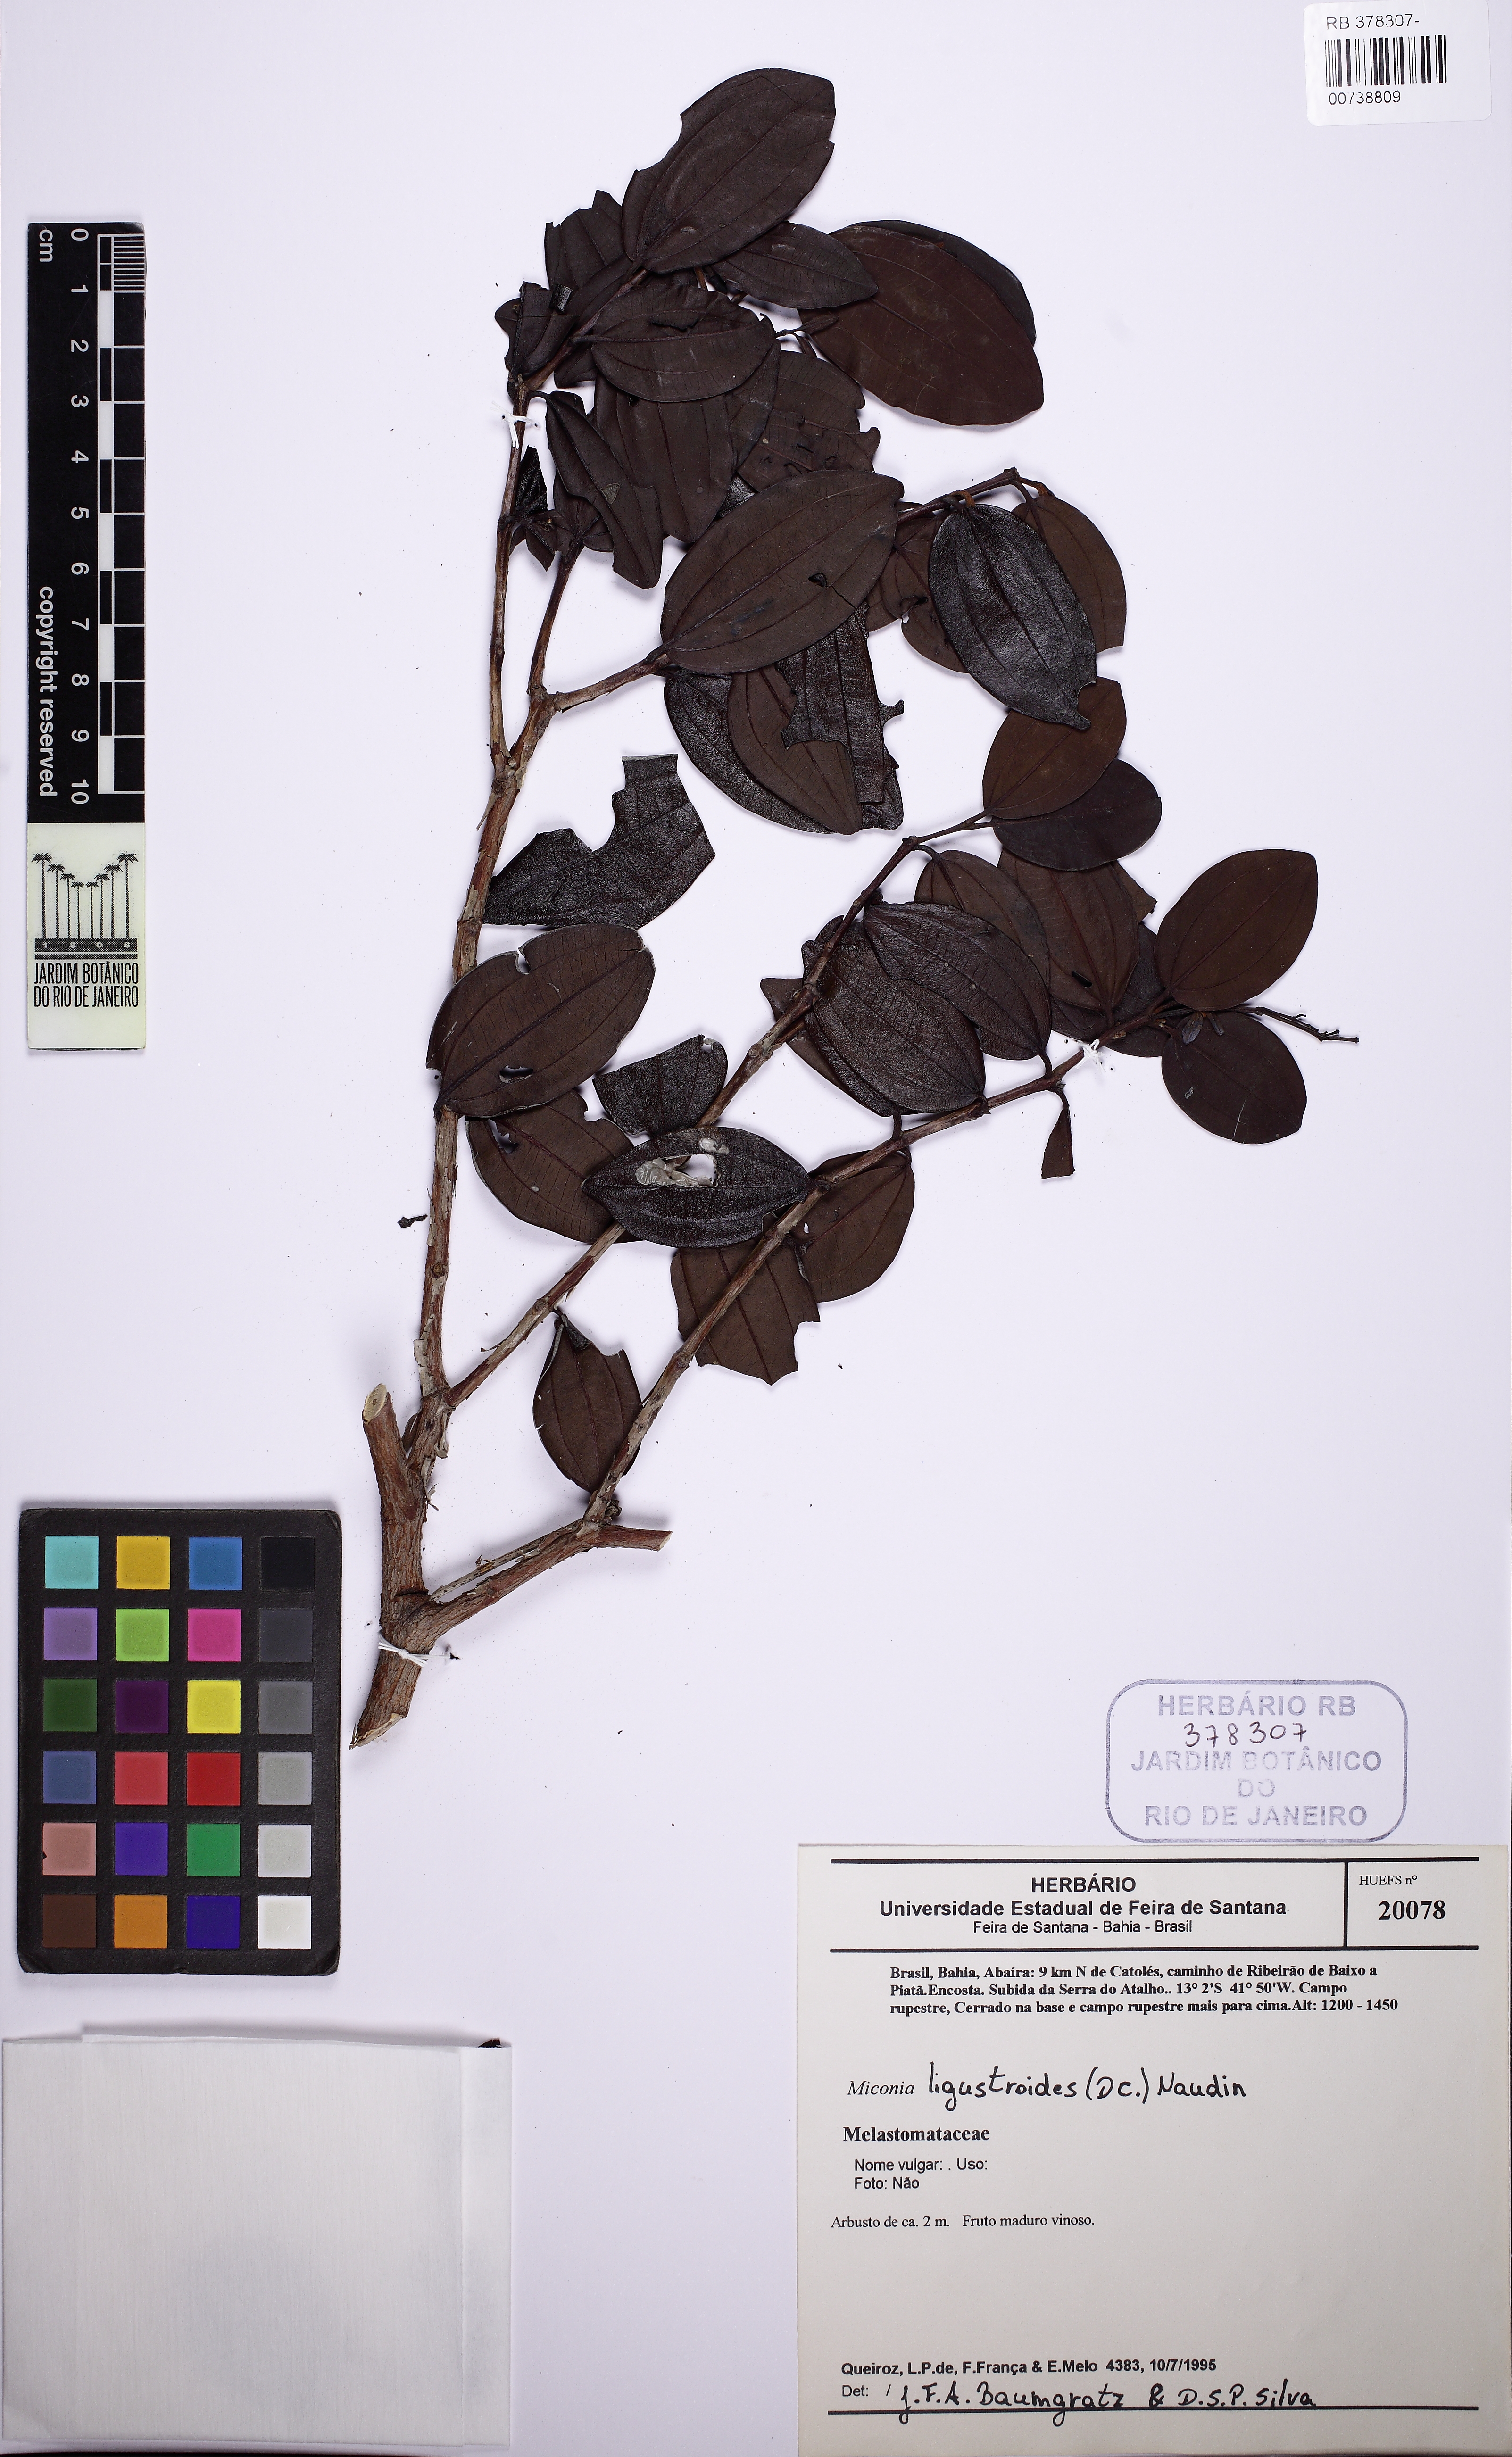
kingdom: Plantae
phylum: Tracheophyta
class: Magnoliopsida
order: Myrtales
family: Melastomataceae
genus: Miconia
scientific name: Miconia ligustroides
